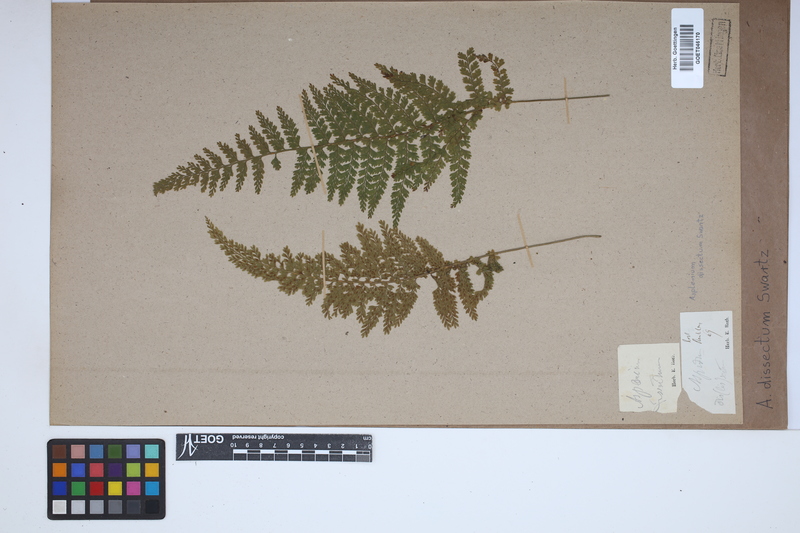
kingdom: Plantae
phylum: Tracheophyta
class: Polypodiopsida
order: Polypodiales
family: Aspleniaceae
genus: Asplenium
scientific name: Asplenium dissectum
